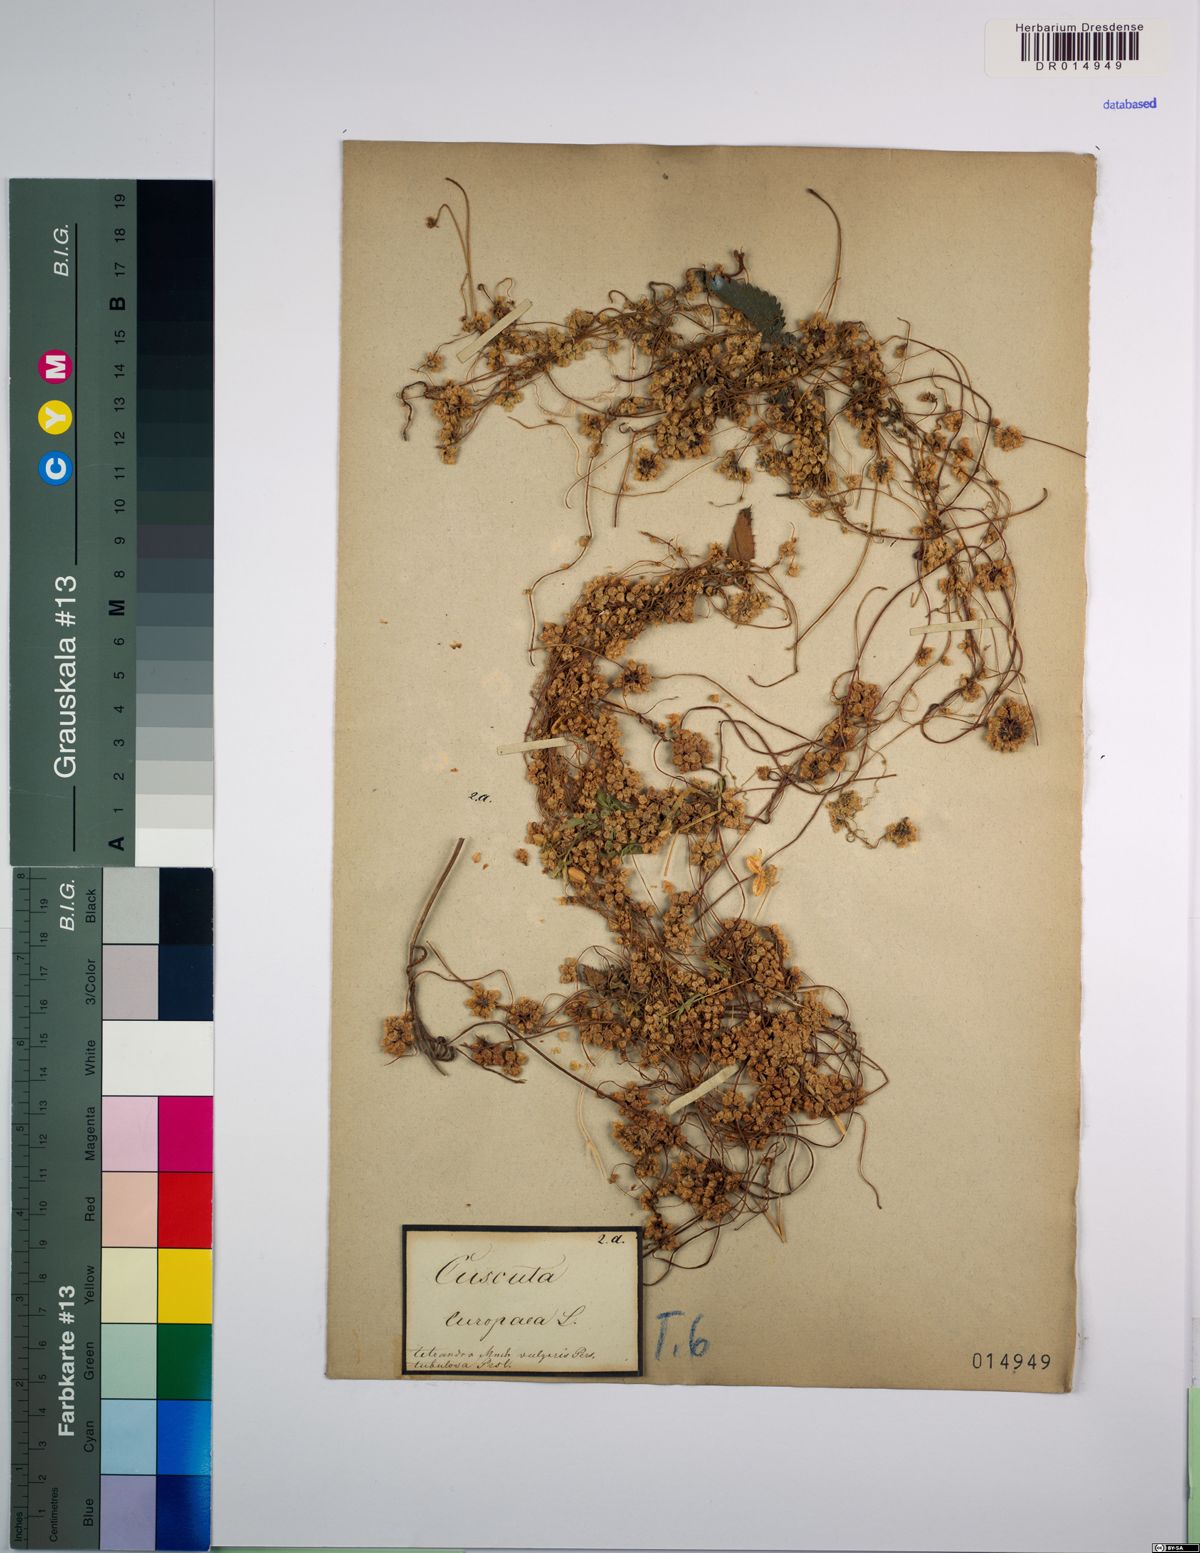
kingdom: Plantae
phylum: Tracheophyta
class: Magnoliopsida
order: Solanales
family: Convolvulaceae
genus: Cuscuta
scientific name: Cuscuta europaea
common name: Greater dodder
